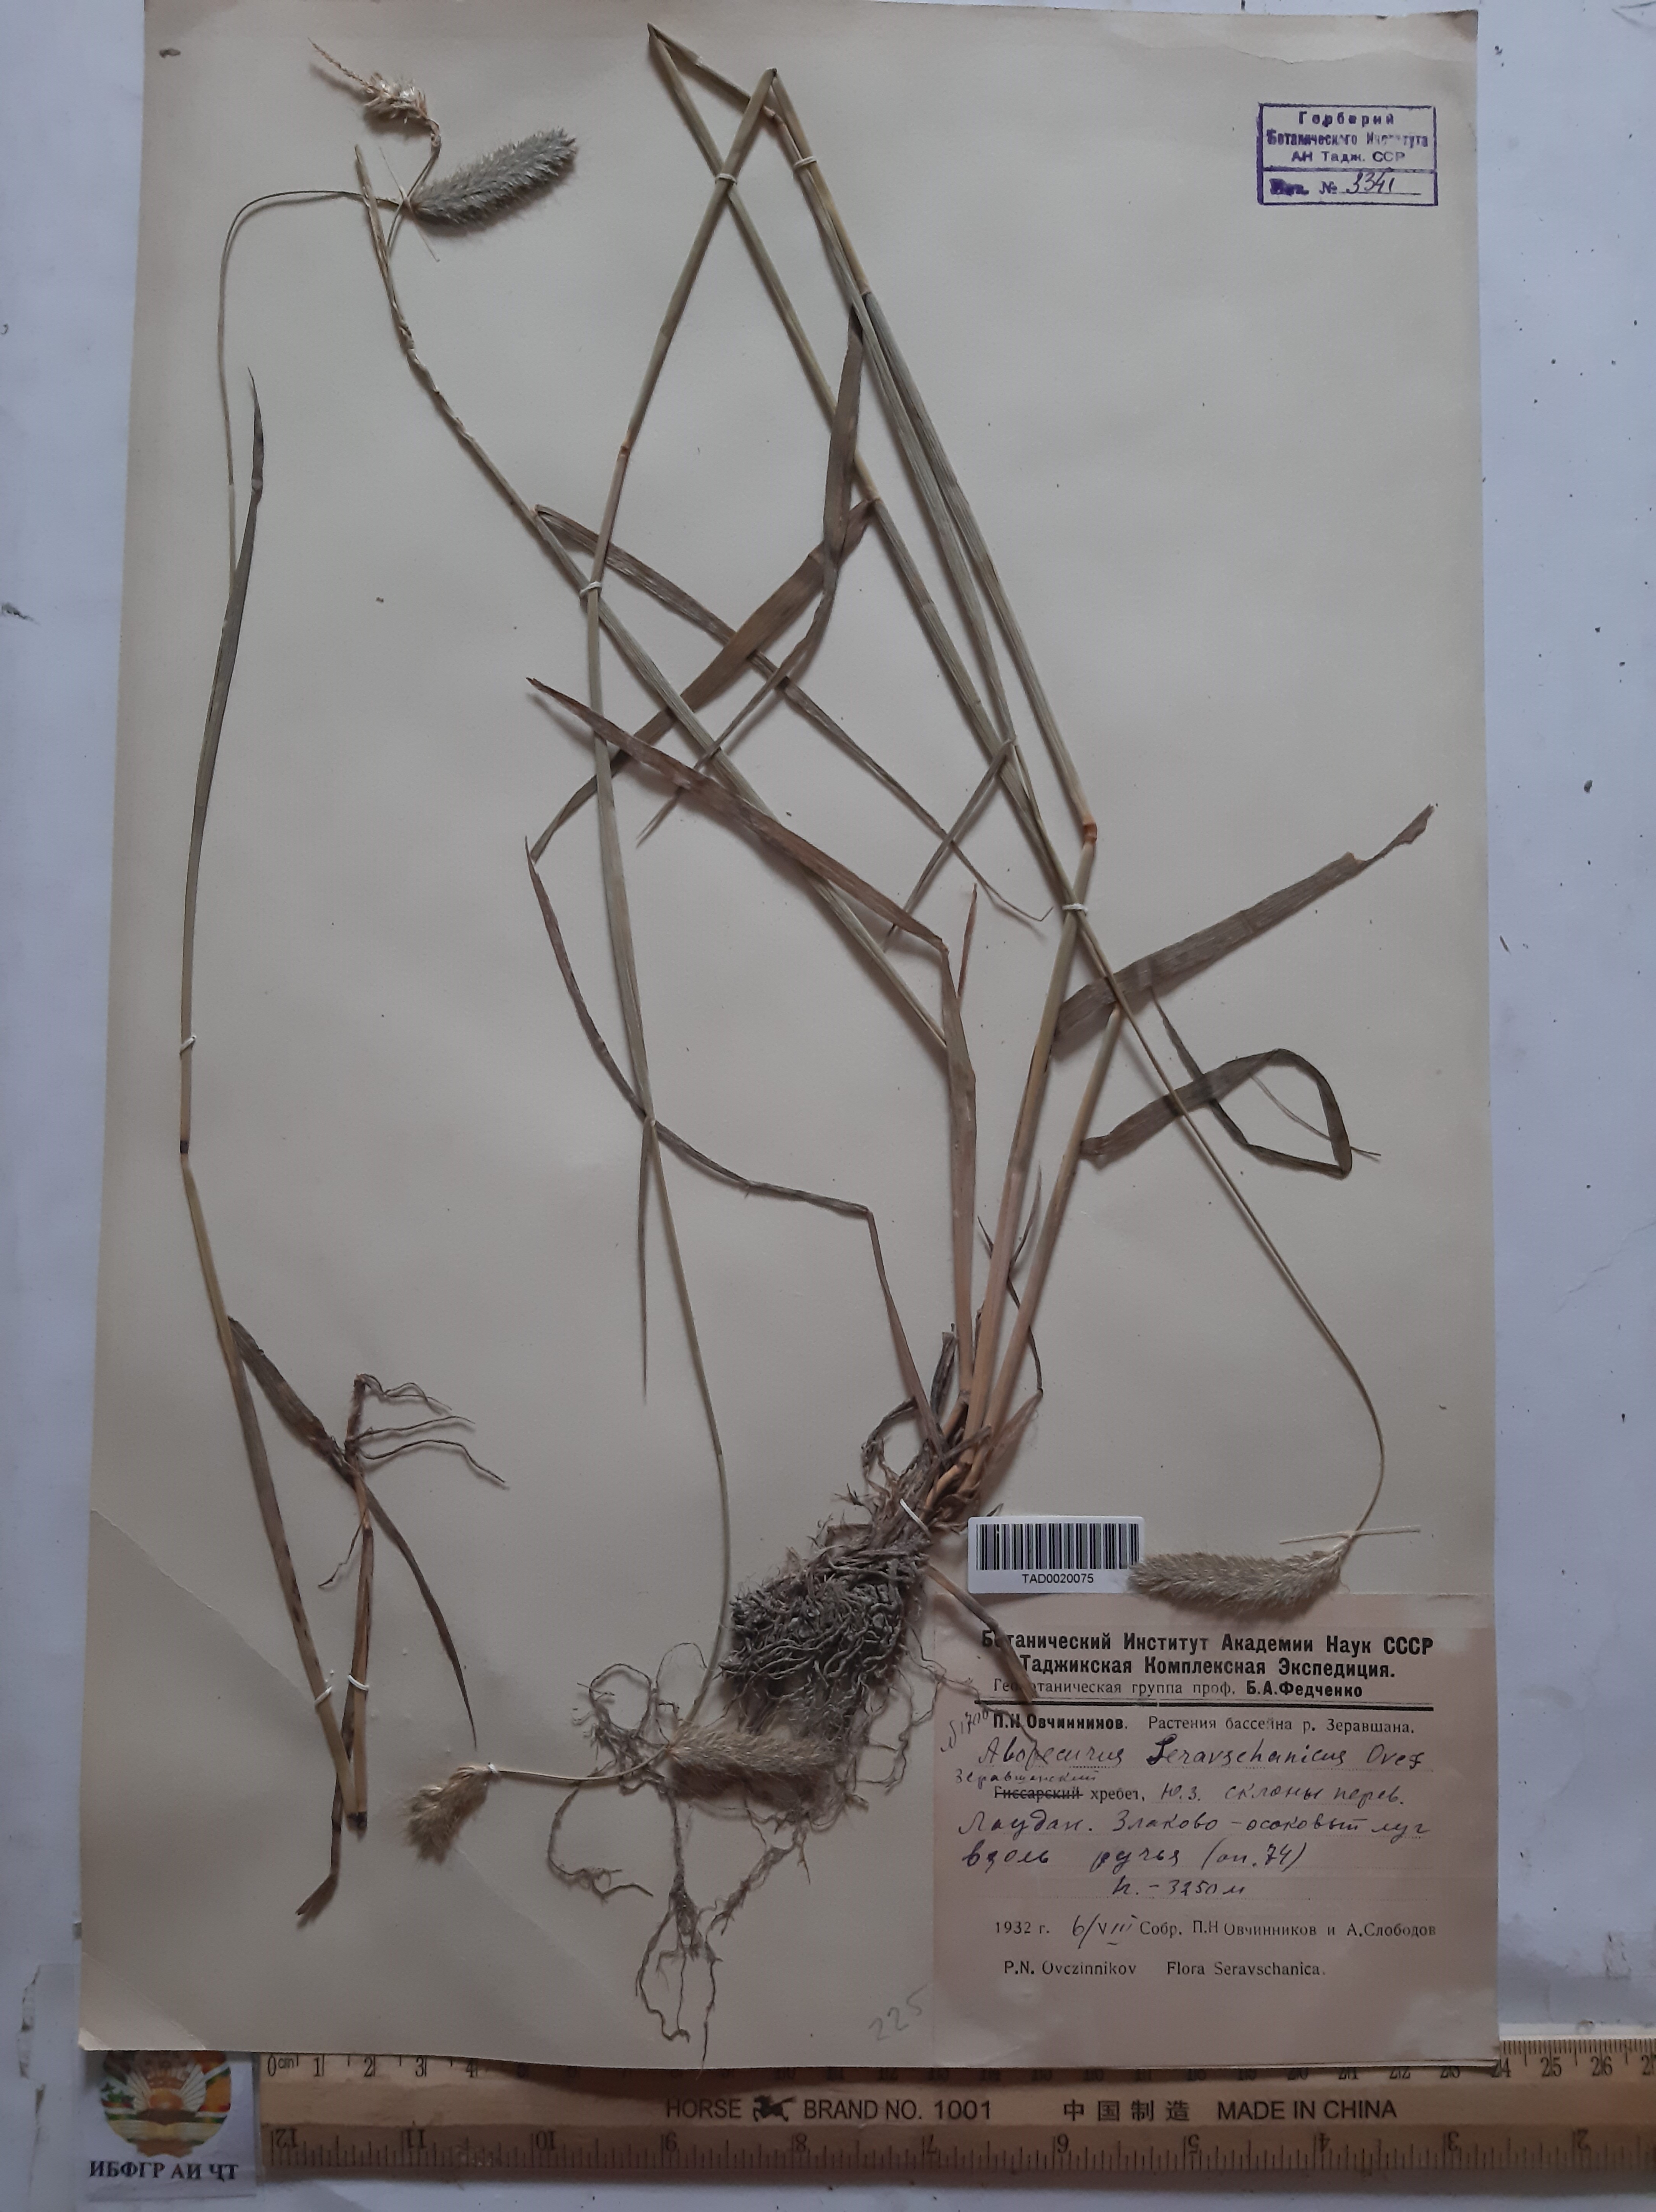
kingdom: Plantae
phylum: Tracheophyta
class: Liliopsida
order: Poales
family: Poaceae
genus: Alopecurus
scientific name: Alopecurus pratensis
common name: Meadow foxtail
